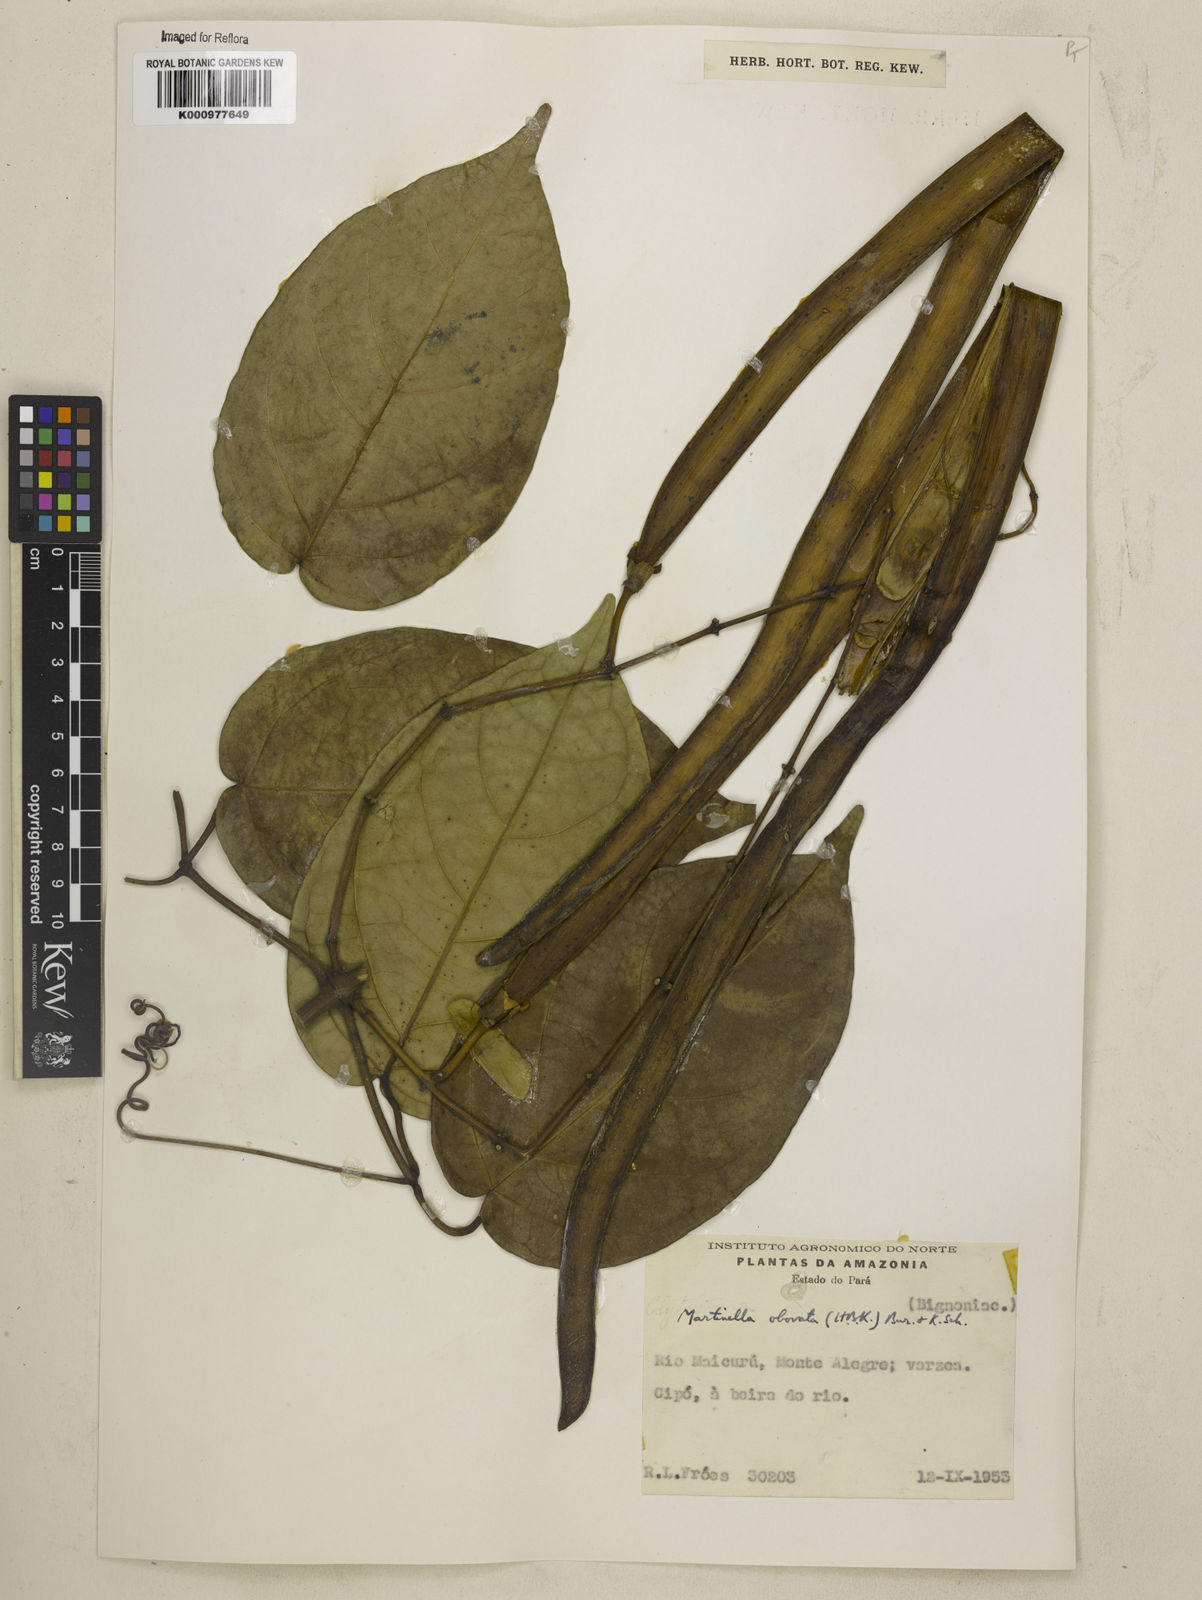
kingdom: Animalia
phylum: Arthropoda
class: Insecta
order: Coleoptera
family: Chrysomelidae
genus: Martinella
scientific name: Martinella obovata
